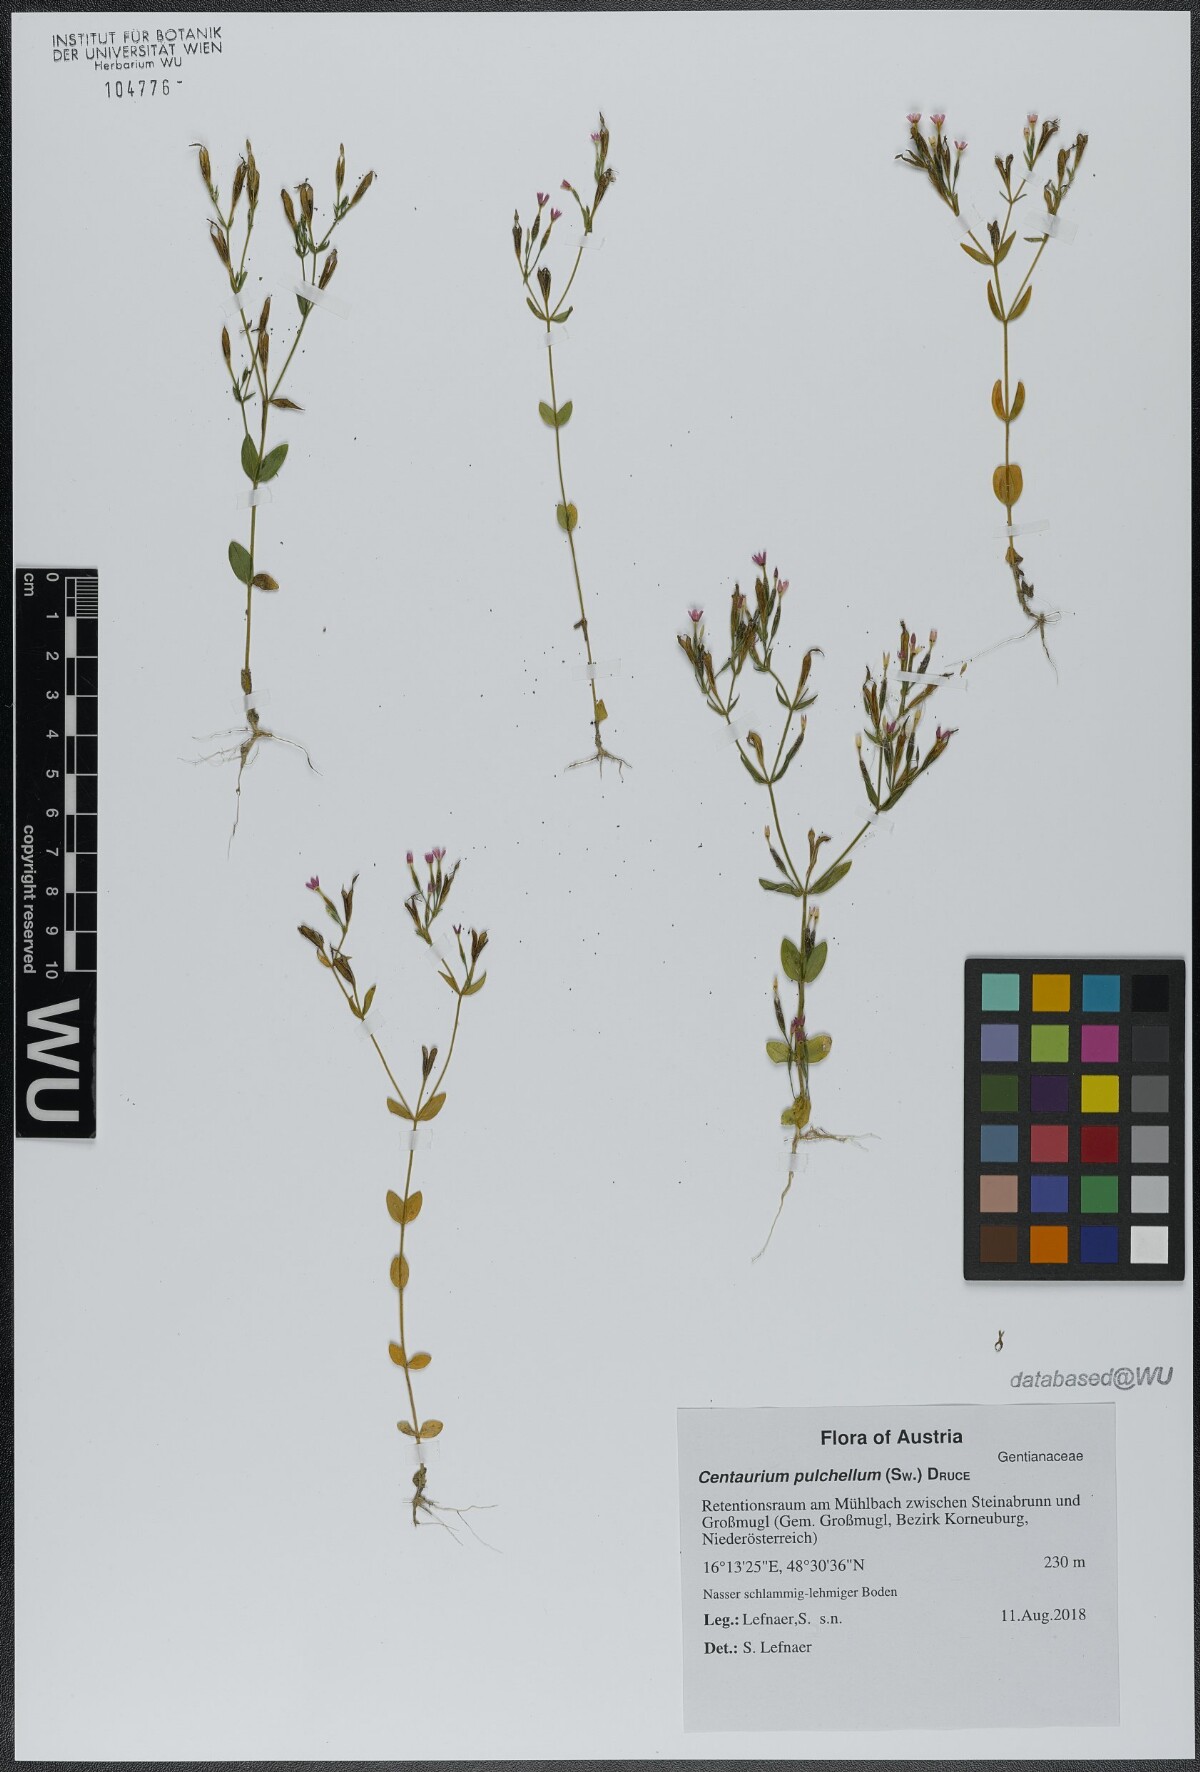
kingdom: Plantae
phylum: Tracheophyta
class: Magnoliopsida
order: Gentianales
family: Gentianaceae
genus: Centaurium
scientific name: Centaurium pulchellum
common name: Lesser centaury
